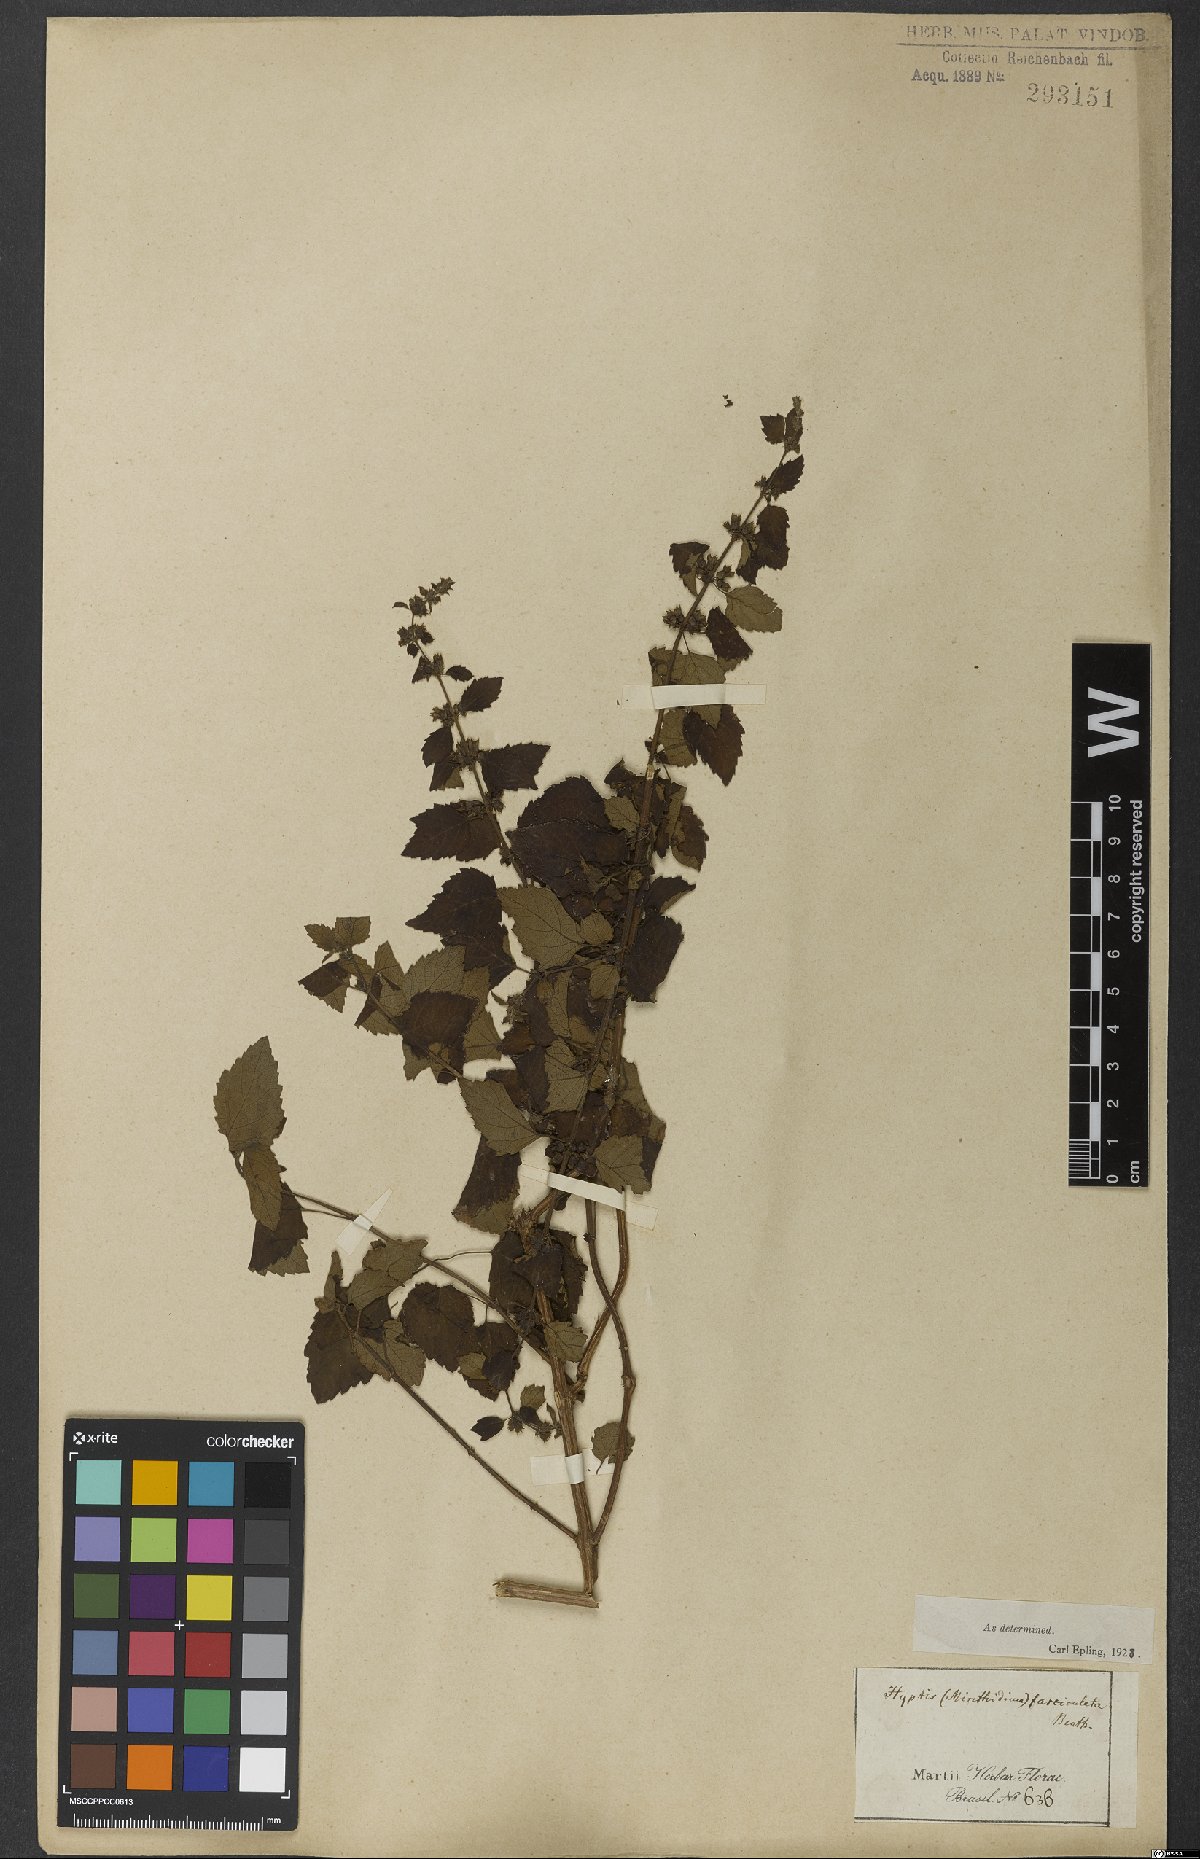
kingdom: Plantae
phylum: Tracheophyta
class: Magnoliopsida
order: Lamiales
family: Lamiaceae
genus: Condea
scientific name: Condea undulata
